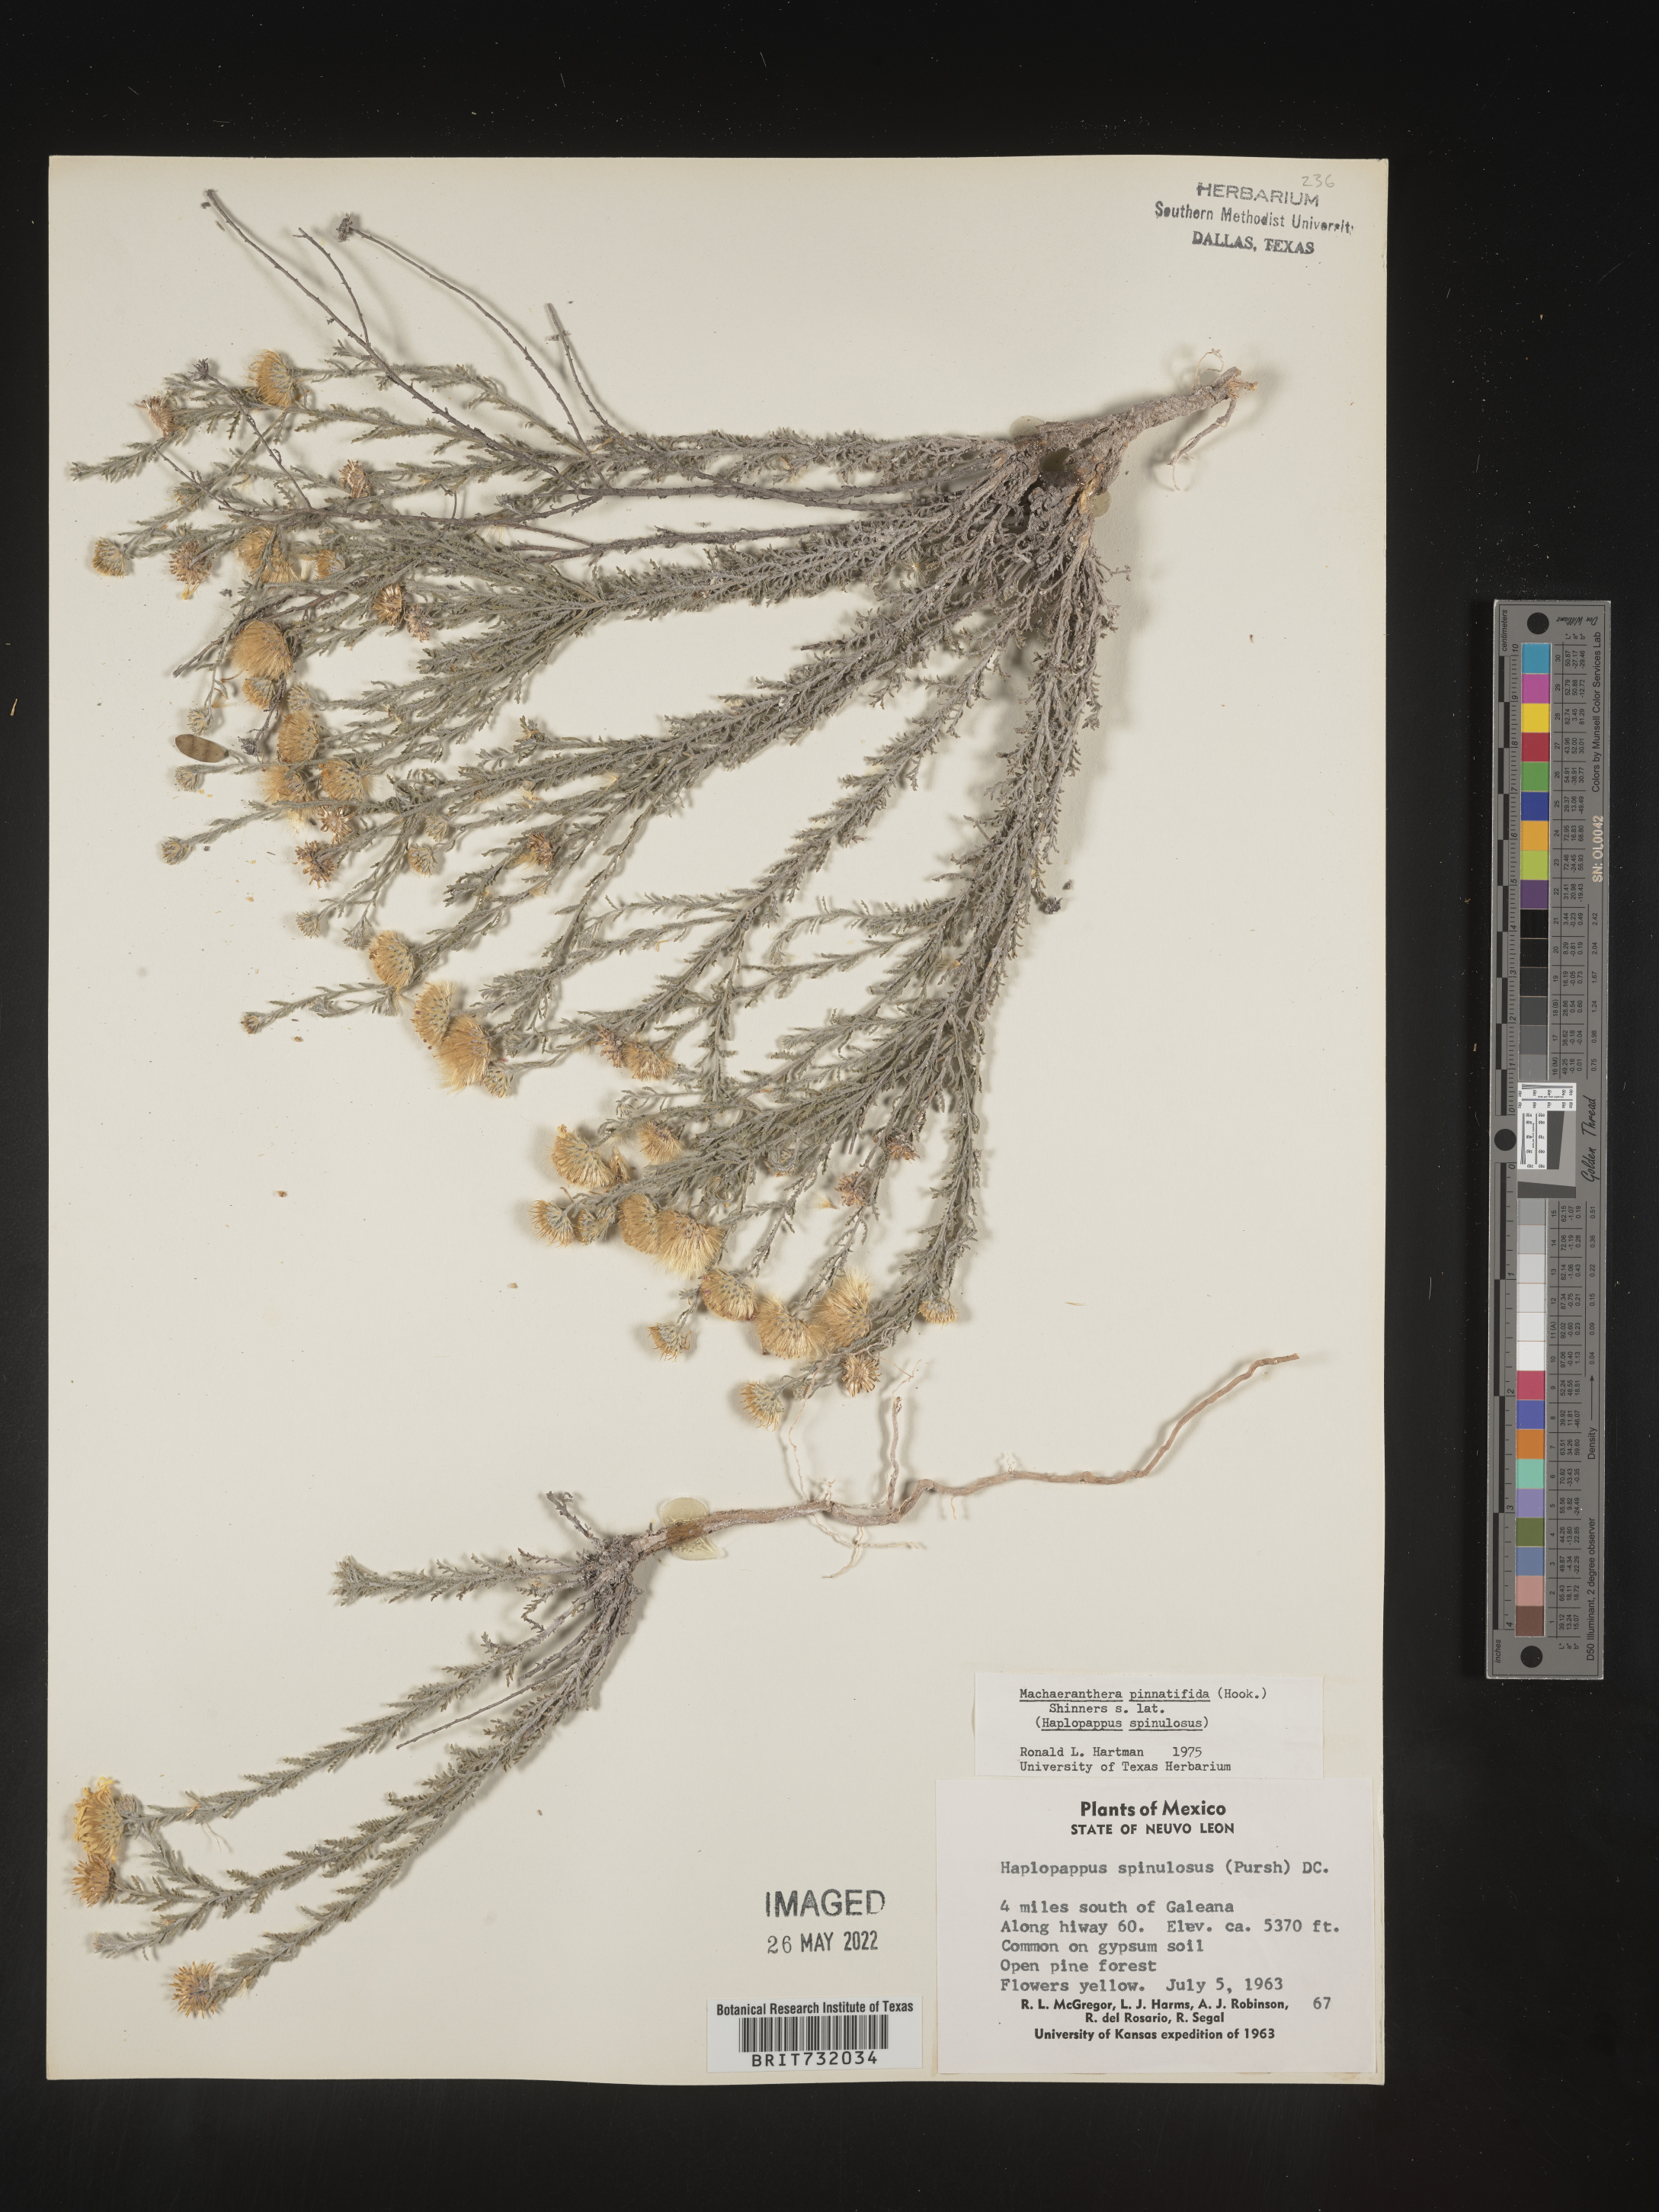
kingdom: Plantae
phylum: Tracheophyta
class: Magnoliopsida
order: Asterales
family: Asteraceae
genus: Xanthisma
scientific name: Xanthisma spinulosum
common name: Spiny goldenweed
